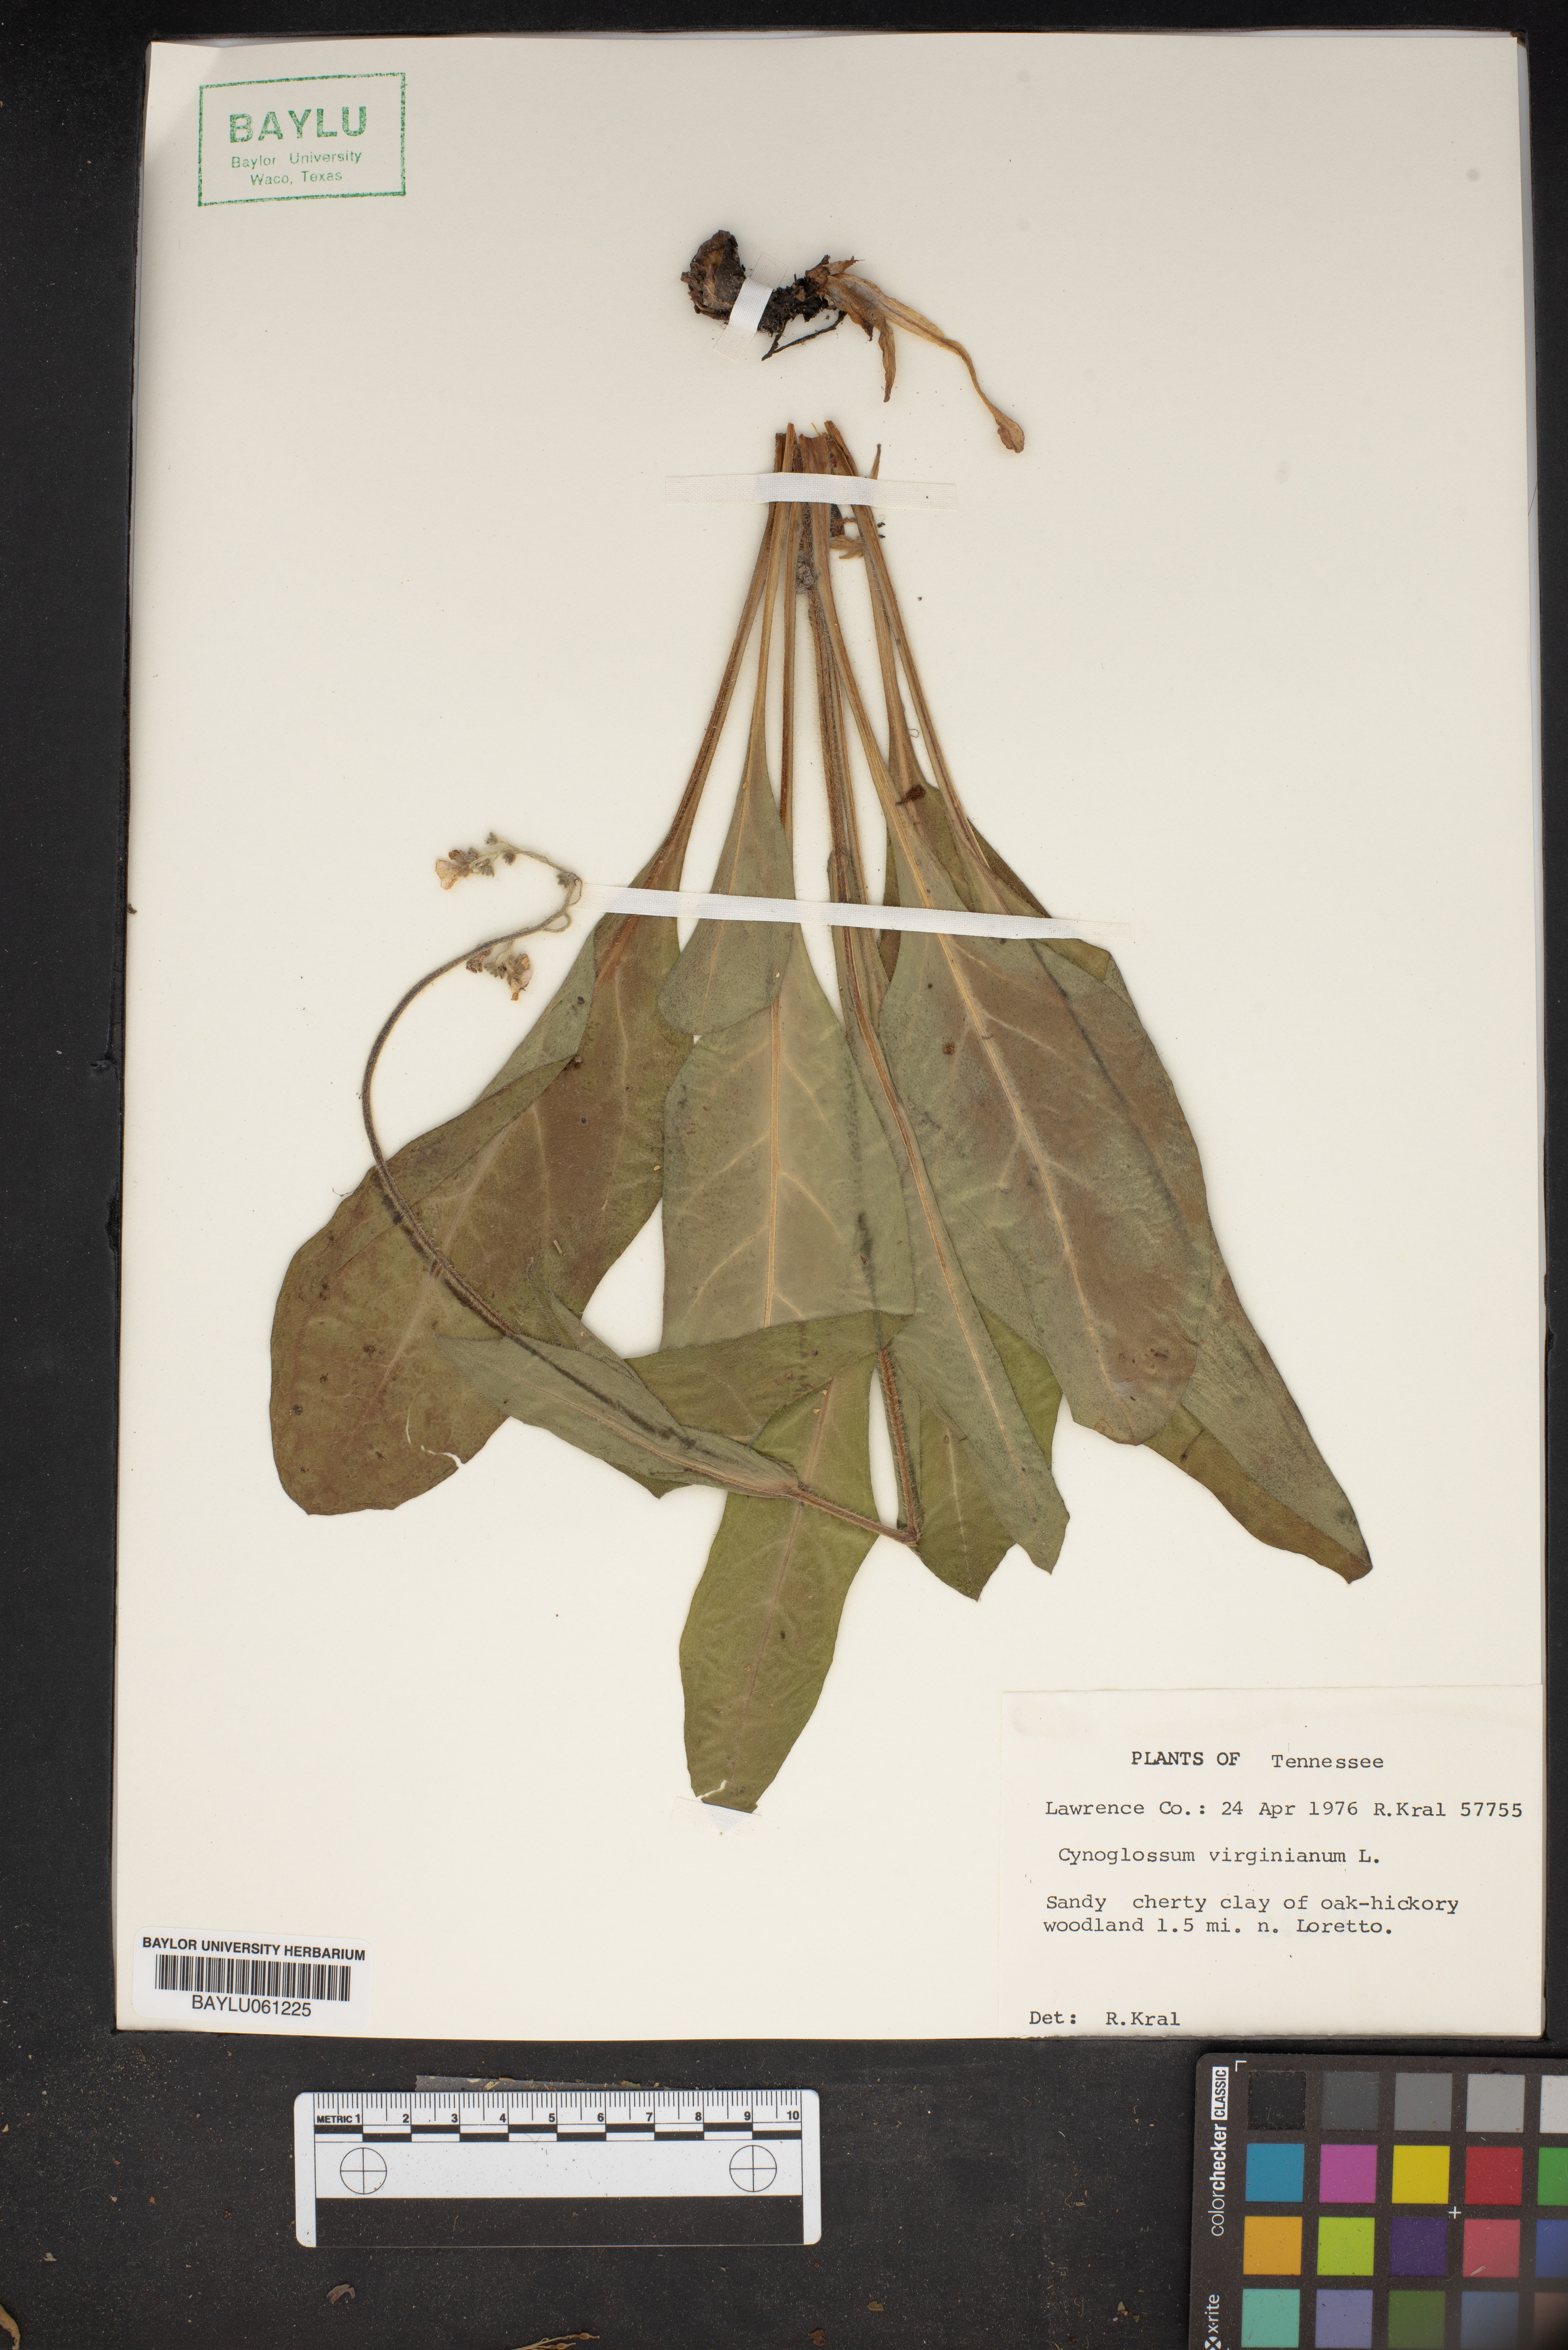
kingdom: Plantae
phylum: Tracheophyta
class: Magnoliopsida
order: Boraginales
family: Boraginaceae
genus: Andersonglossum
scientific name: Andersonglossum virginianum
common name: Wild comfrey
